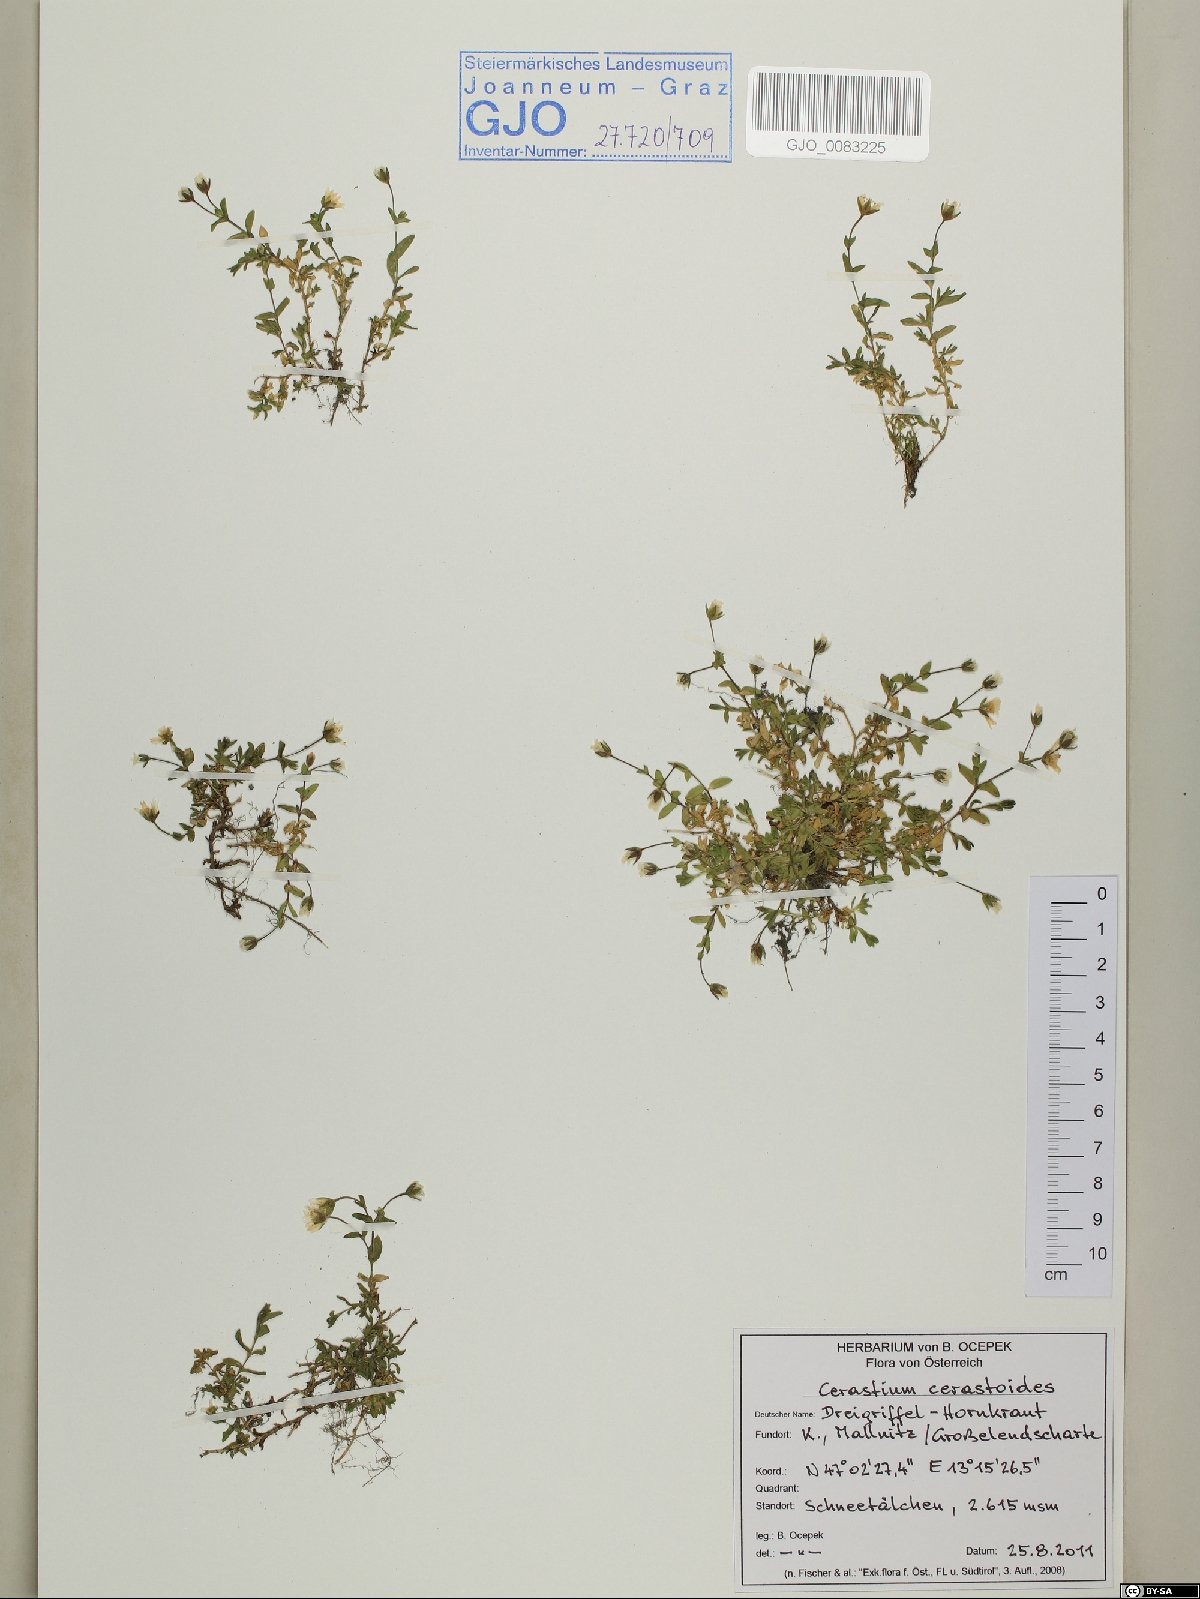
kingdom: Plantae
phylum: Tracheophyta
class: Magnoliopsida
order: Caryophyllales
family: Caryophyllaceae
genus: Dichodon
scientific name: Dichodon cerastoides
